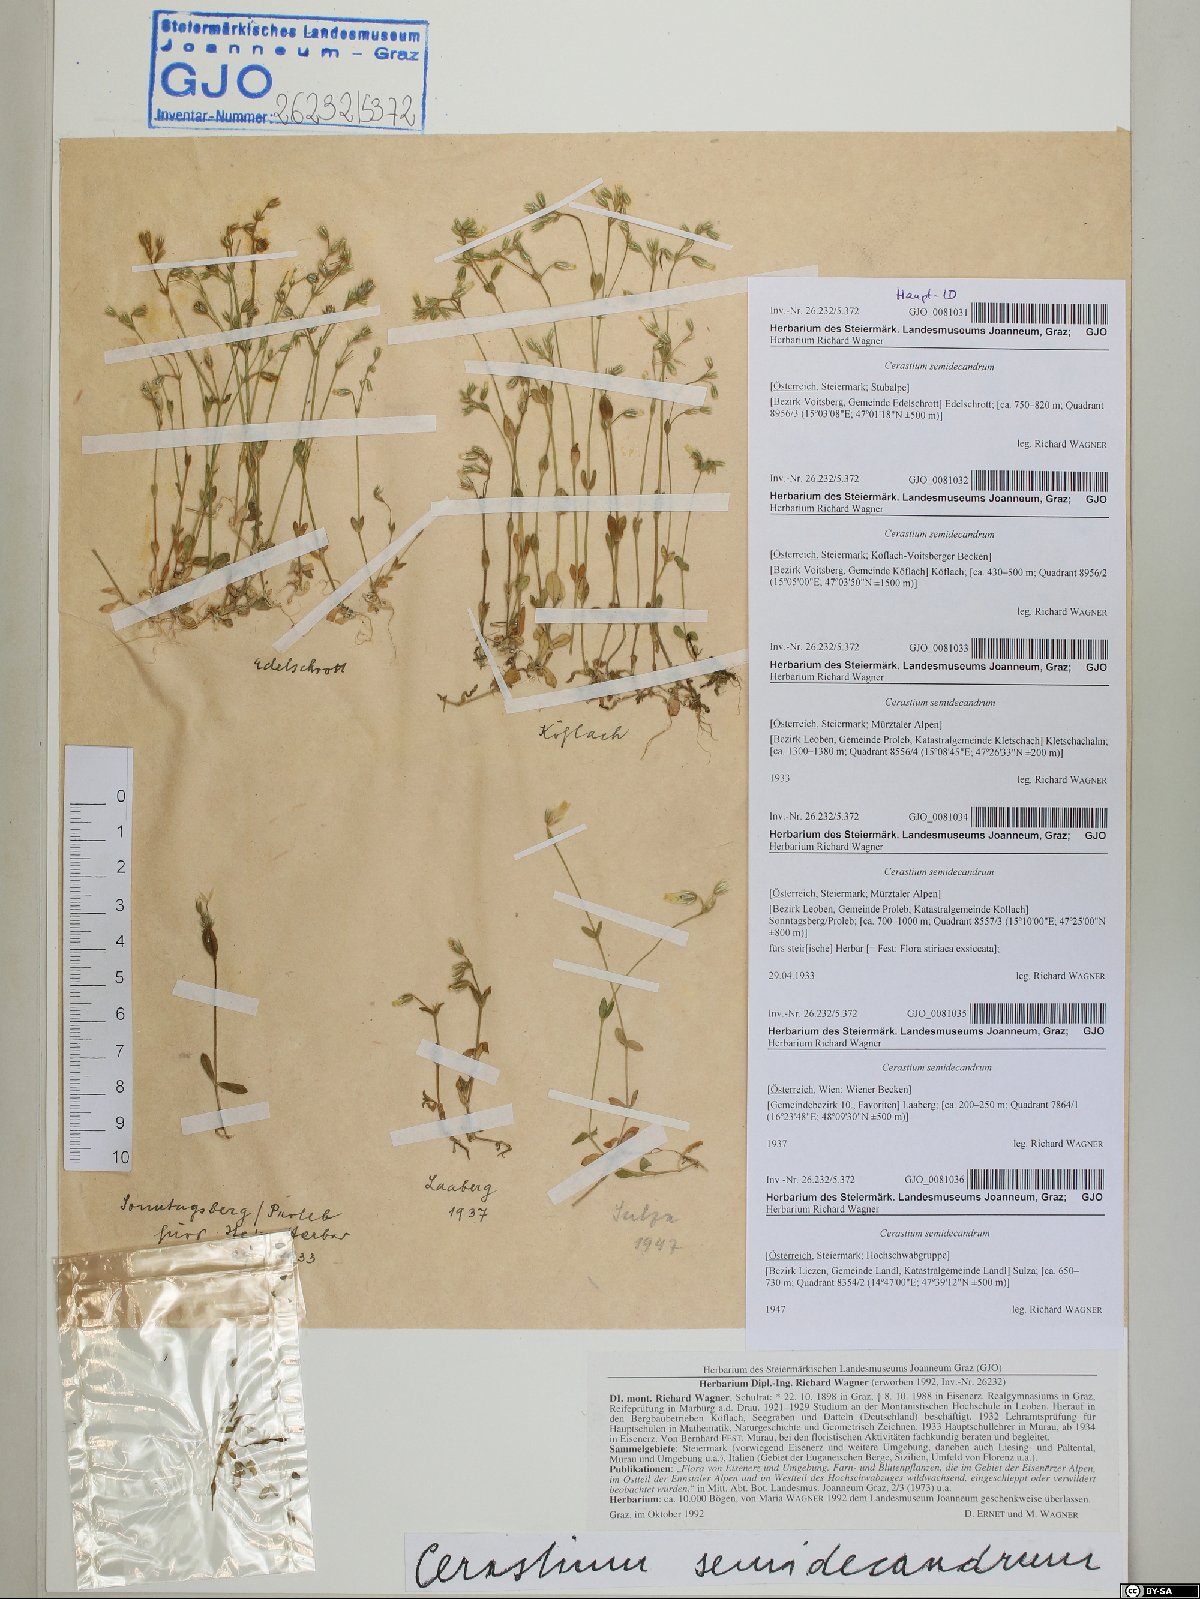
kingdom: Plantae
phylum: Tracheophyta
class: Magnoliopsida
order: Caryophyllales
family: Caryophyllaceae
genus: Cerastium
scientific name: Cerastium semidecandrum
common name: Little mouse-ear
